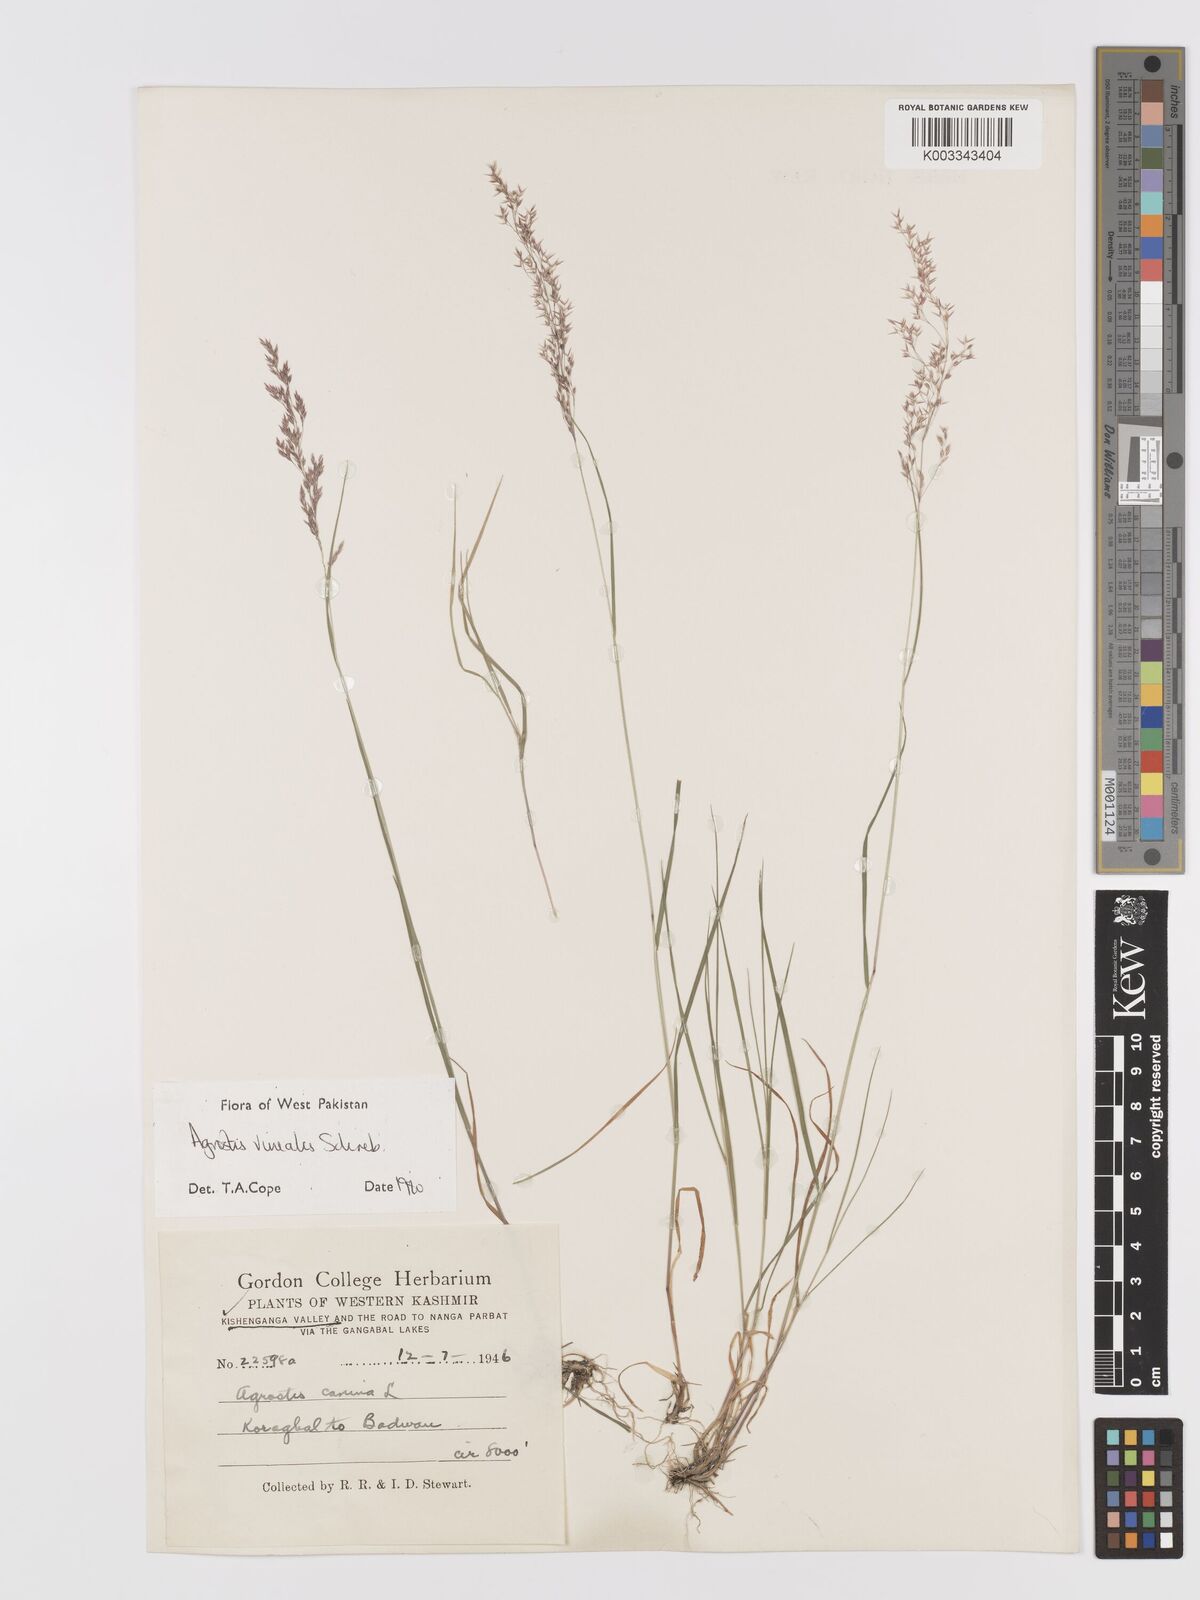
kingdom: Plantae
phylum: Tracheophyta
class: Liliopsida
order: Poales
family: Poaceae
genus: Agrostis
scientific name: Agrostis vinealis
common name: Brown bent
